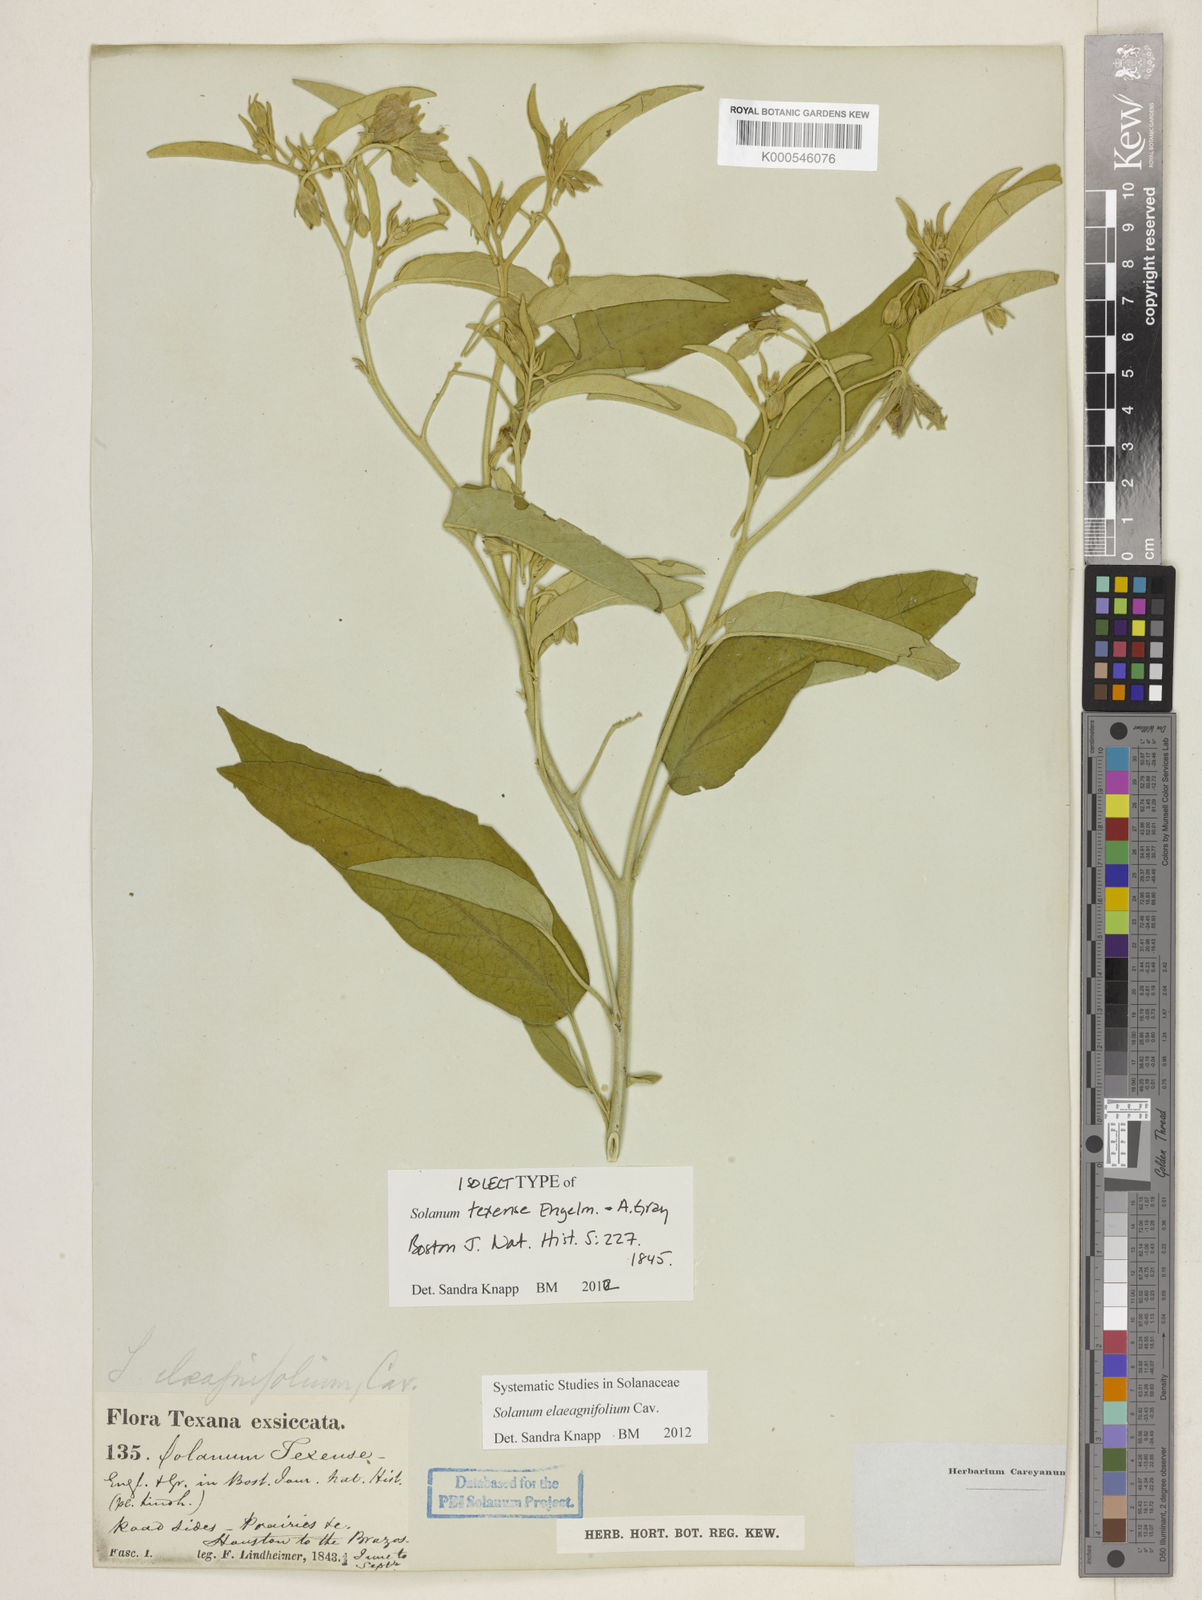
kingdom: Plantae
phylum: Tracheophyta
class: Magnoliopsida
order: Solanales
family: Solanaceae
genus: Solanum
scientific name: Solanum elaeagnifolium
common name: Silverleaf nightshade
